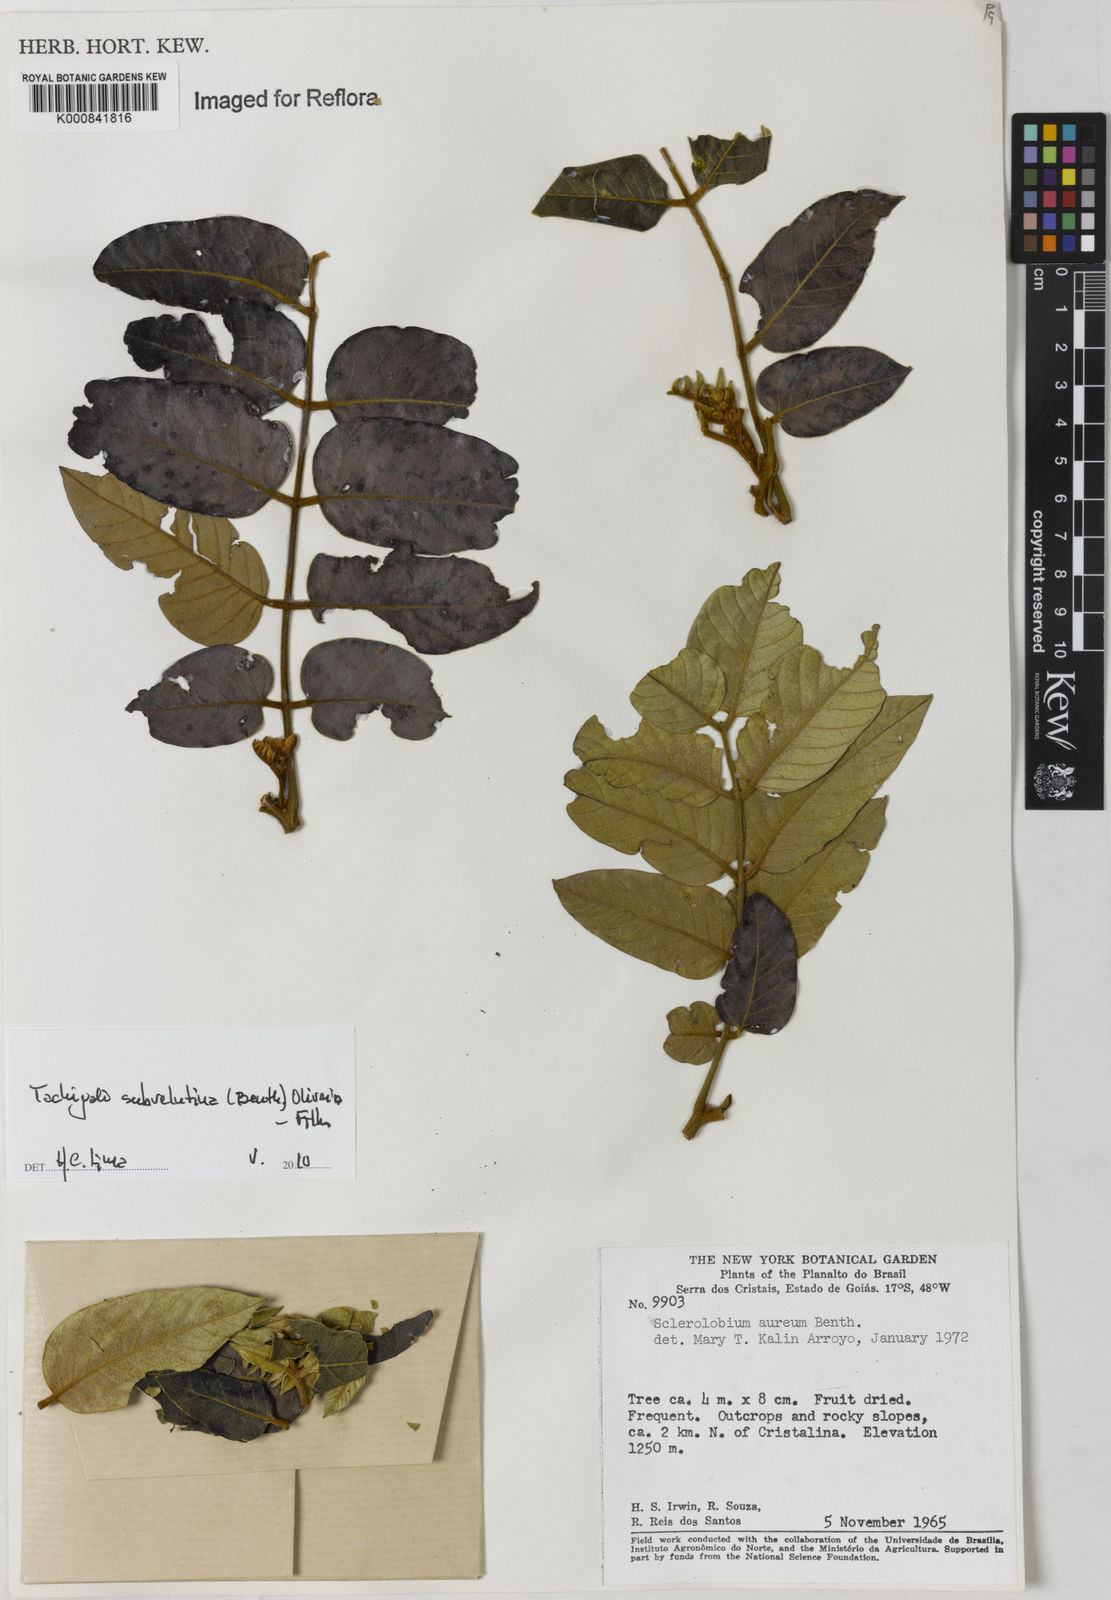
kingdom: Plantae
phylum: Tracheophyta
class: Magnoliopsida
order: Fabales
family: Fabaceae
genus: Tachigali
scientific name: Tachigali subvelutina
